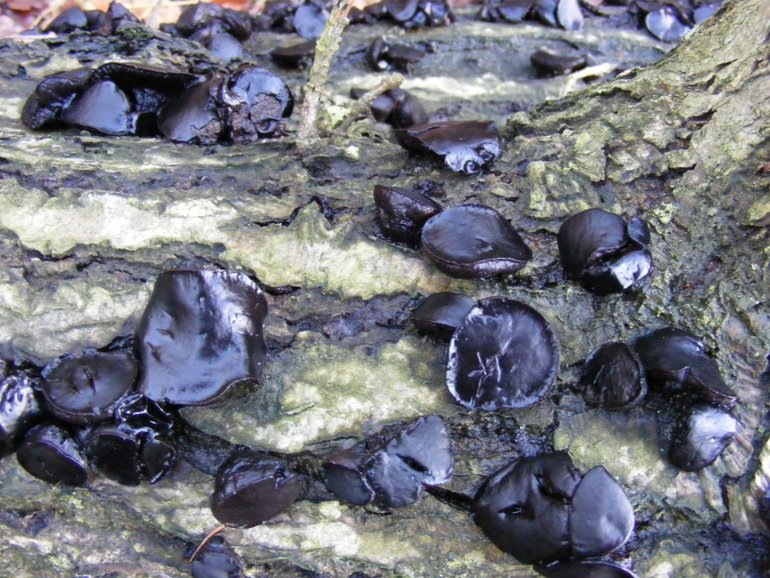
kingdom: Fungi
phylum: Ascomycota
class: Leotiomycetes
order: Phacidiales
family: Phacidiaceae
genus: Bulgaria
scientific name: Bulgaria inquinans
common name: afsmittende topsvamp
